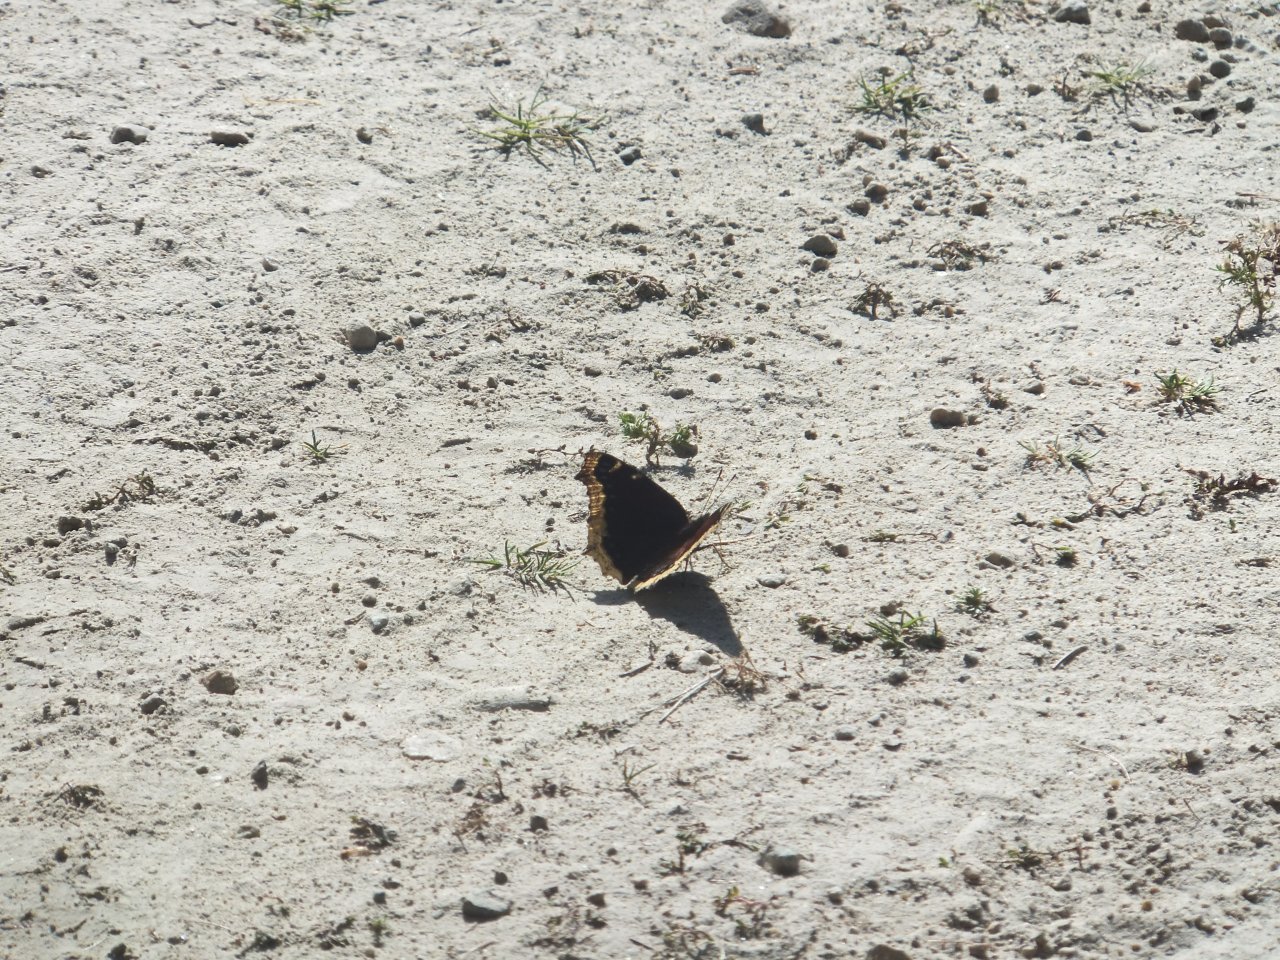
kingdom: Animalia
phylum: Arthropoda
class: Insecta
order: Lepidoptera
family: Nymphalidae
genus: Nymphalis
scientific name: Nymphalis antiopa
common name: Mourning Cloak
